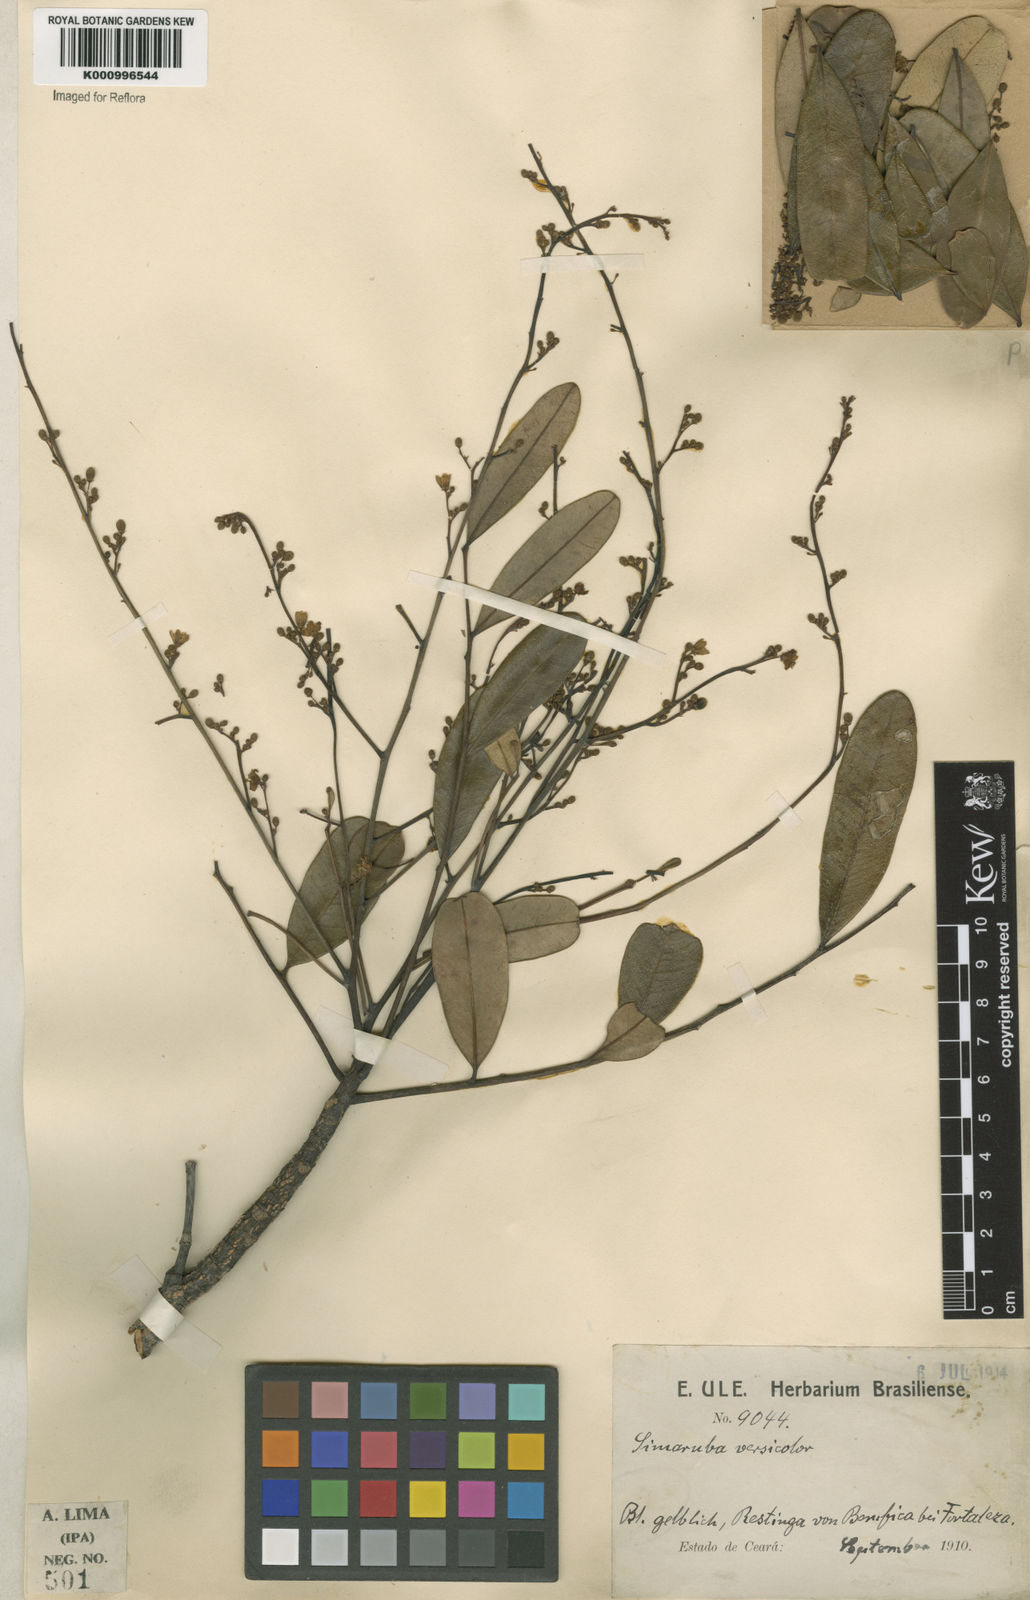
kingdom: Plantae
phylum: Tracheophyta
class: Magnoliopsida
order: Sapindales
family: Simaroubaceae
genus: Simarouba
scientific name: Simarouba versicolor
